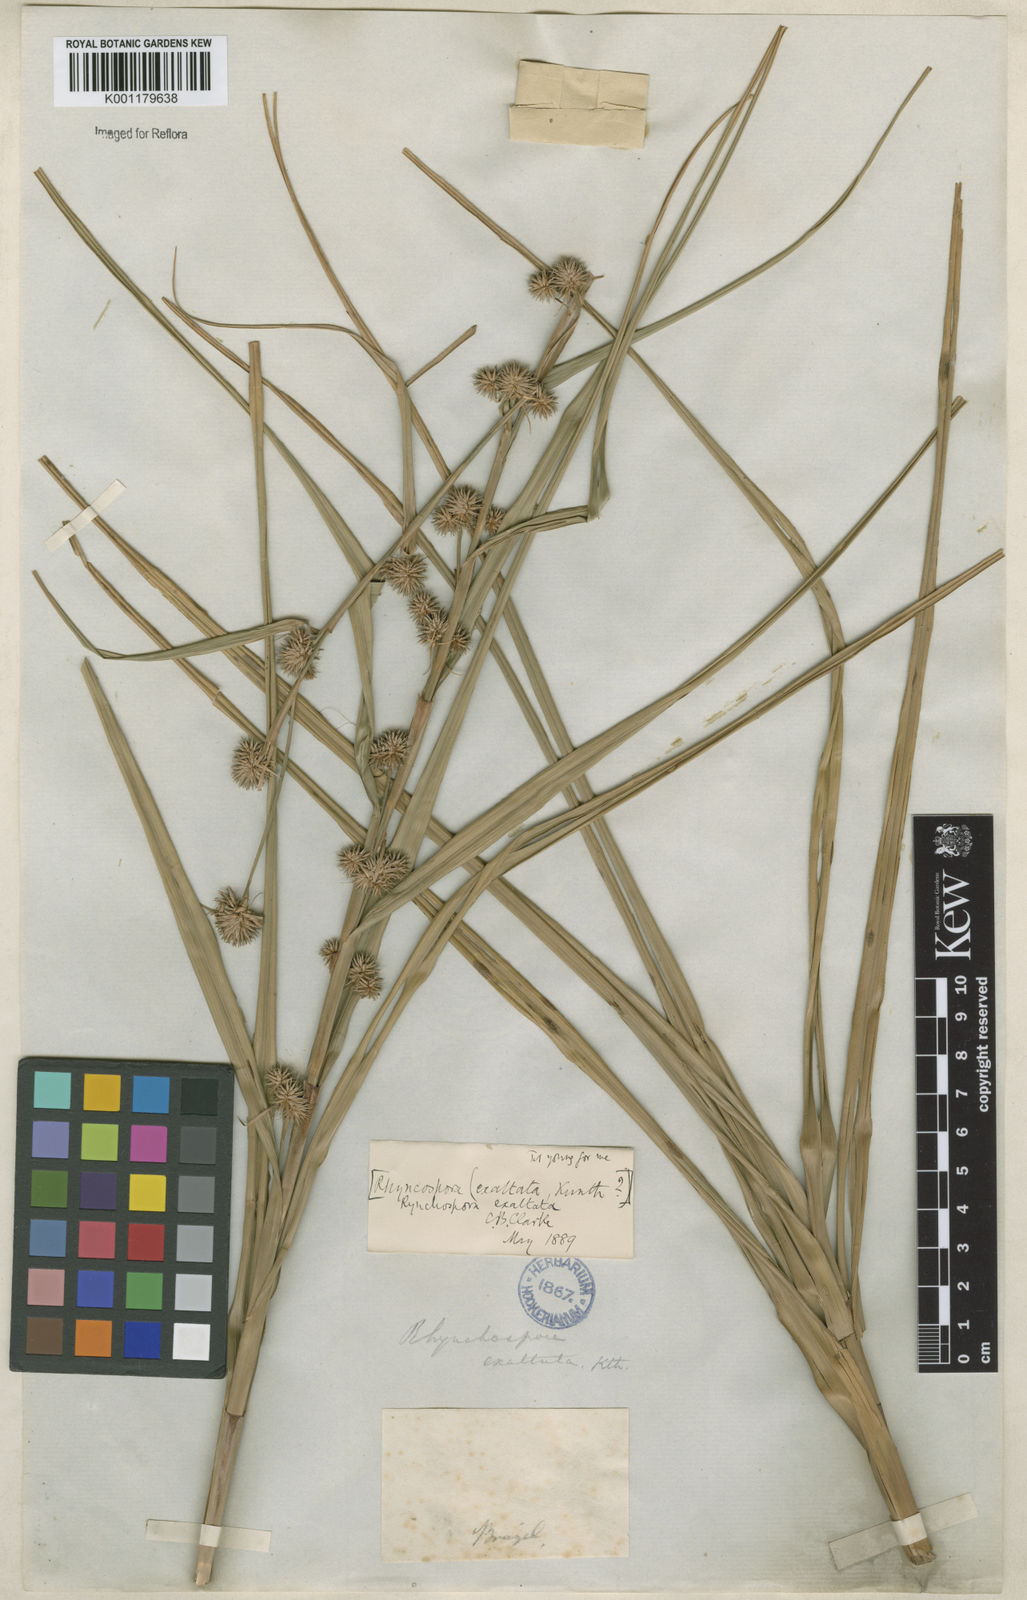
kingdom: Plantae
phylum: Tracheophyta
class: Liliopsida
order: Poales
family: Cyperaceae
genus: Rhynchospora
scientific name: Rhynchospora exaltata
